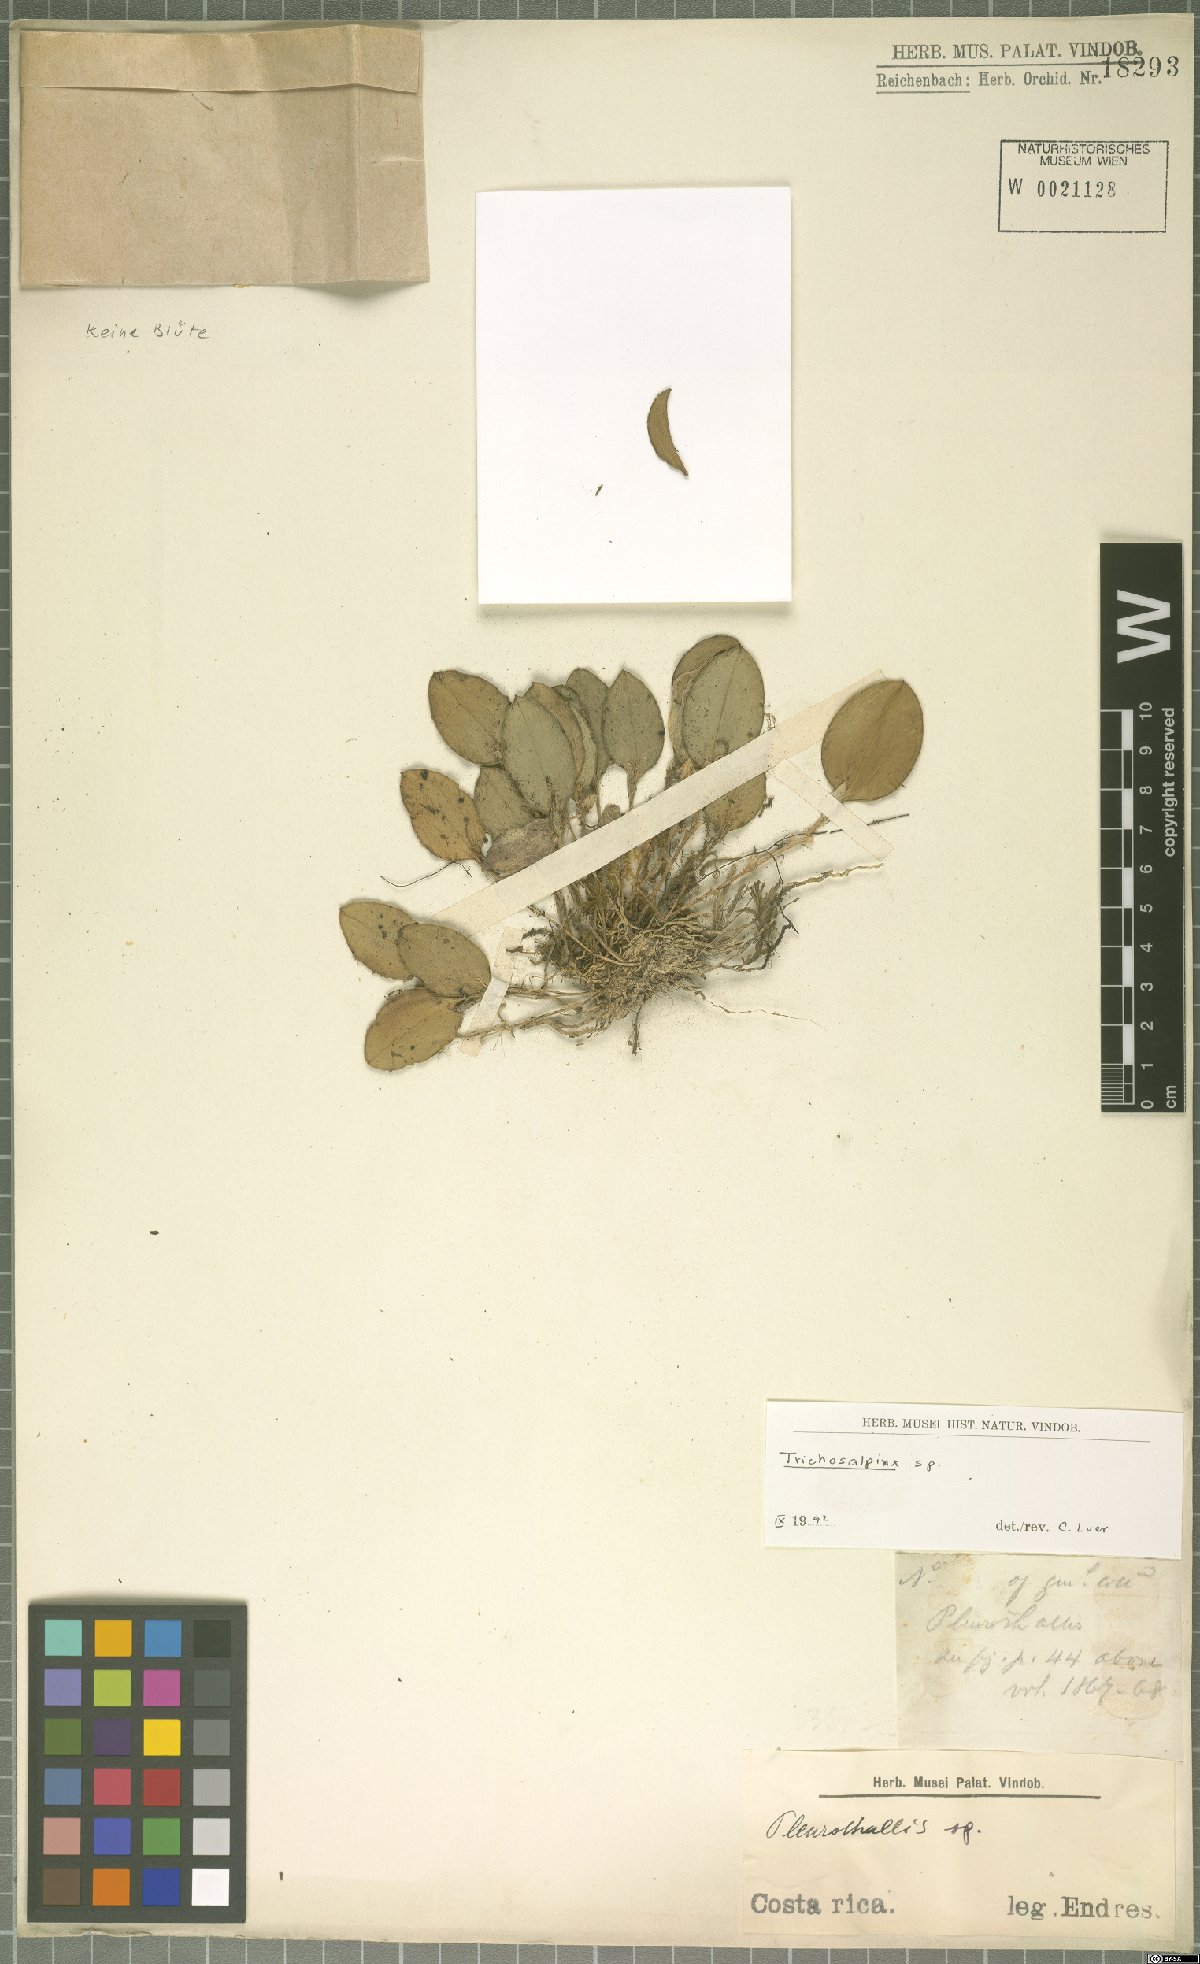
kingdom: Plantae
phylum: Tracheophyta
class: Liliopsida
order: Asparagales
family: Orchidaceae
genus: Trichosalpinx
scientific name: Trichosalpinx
